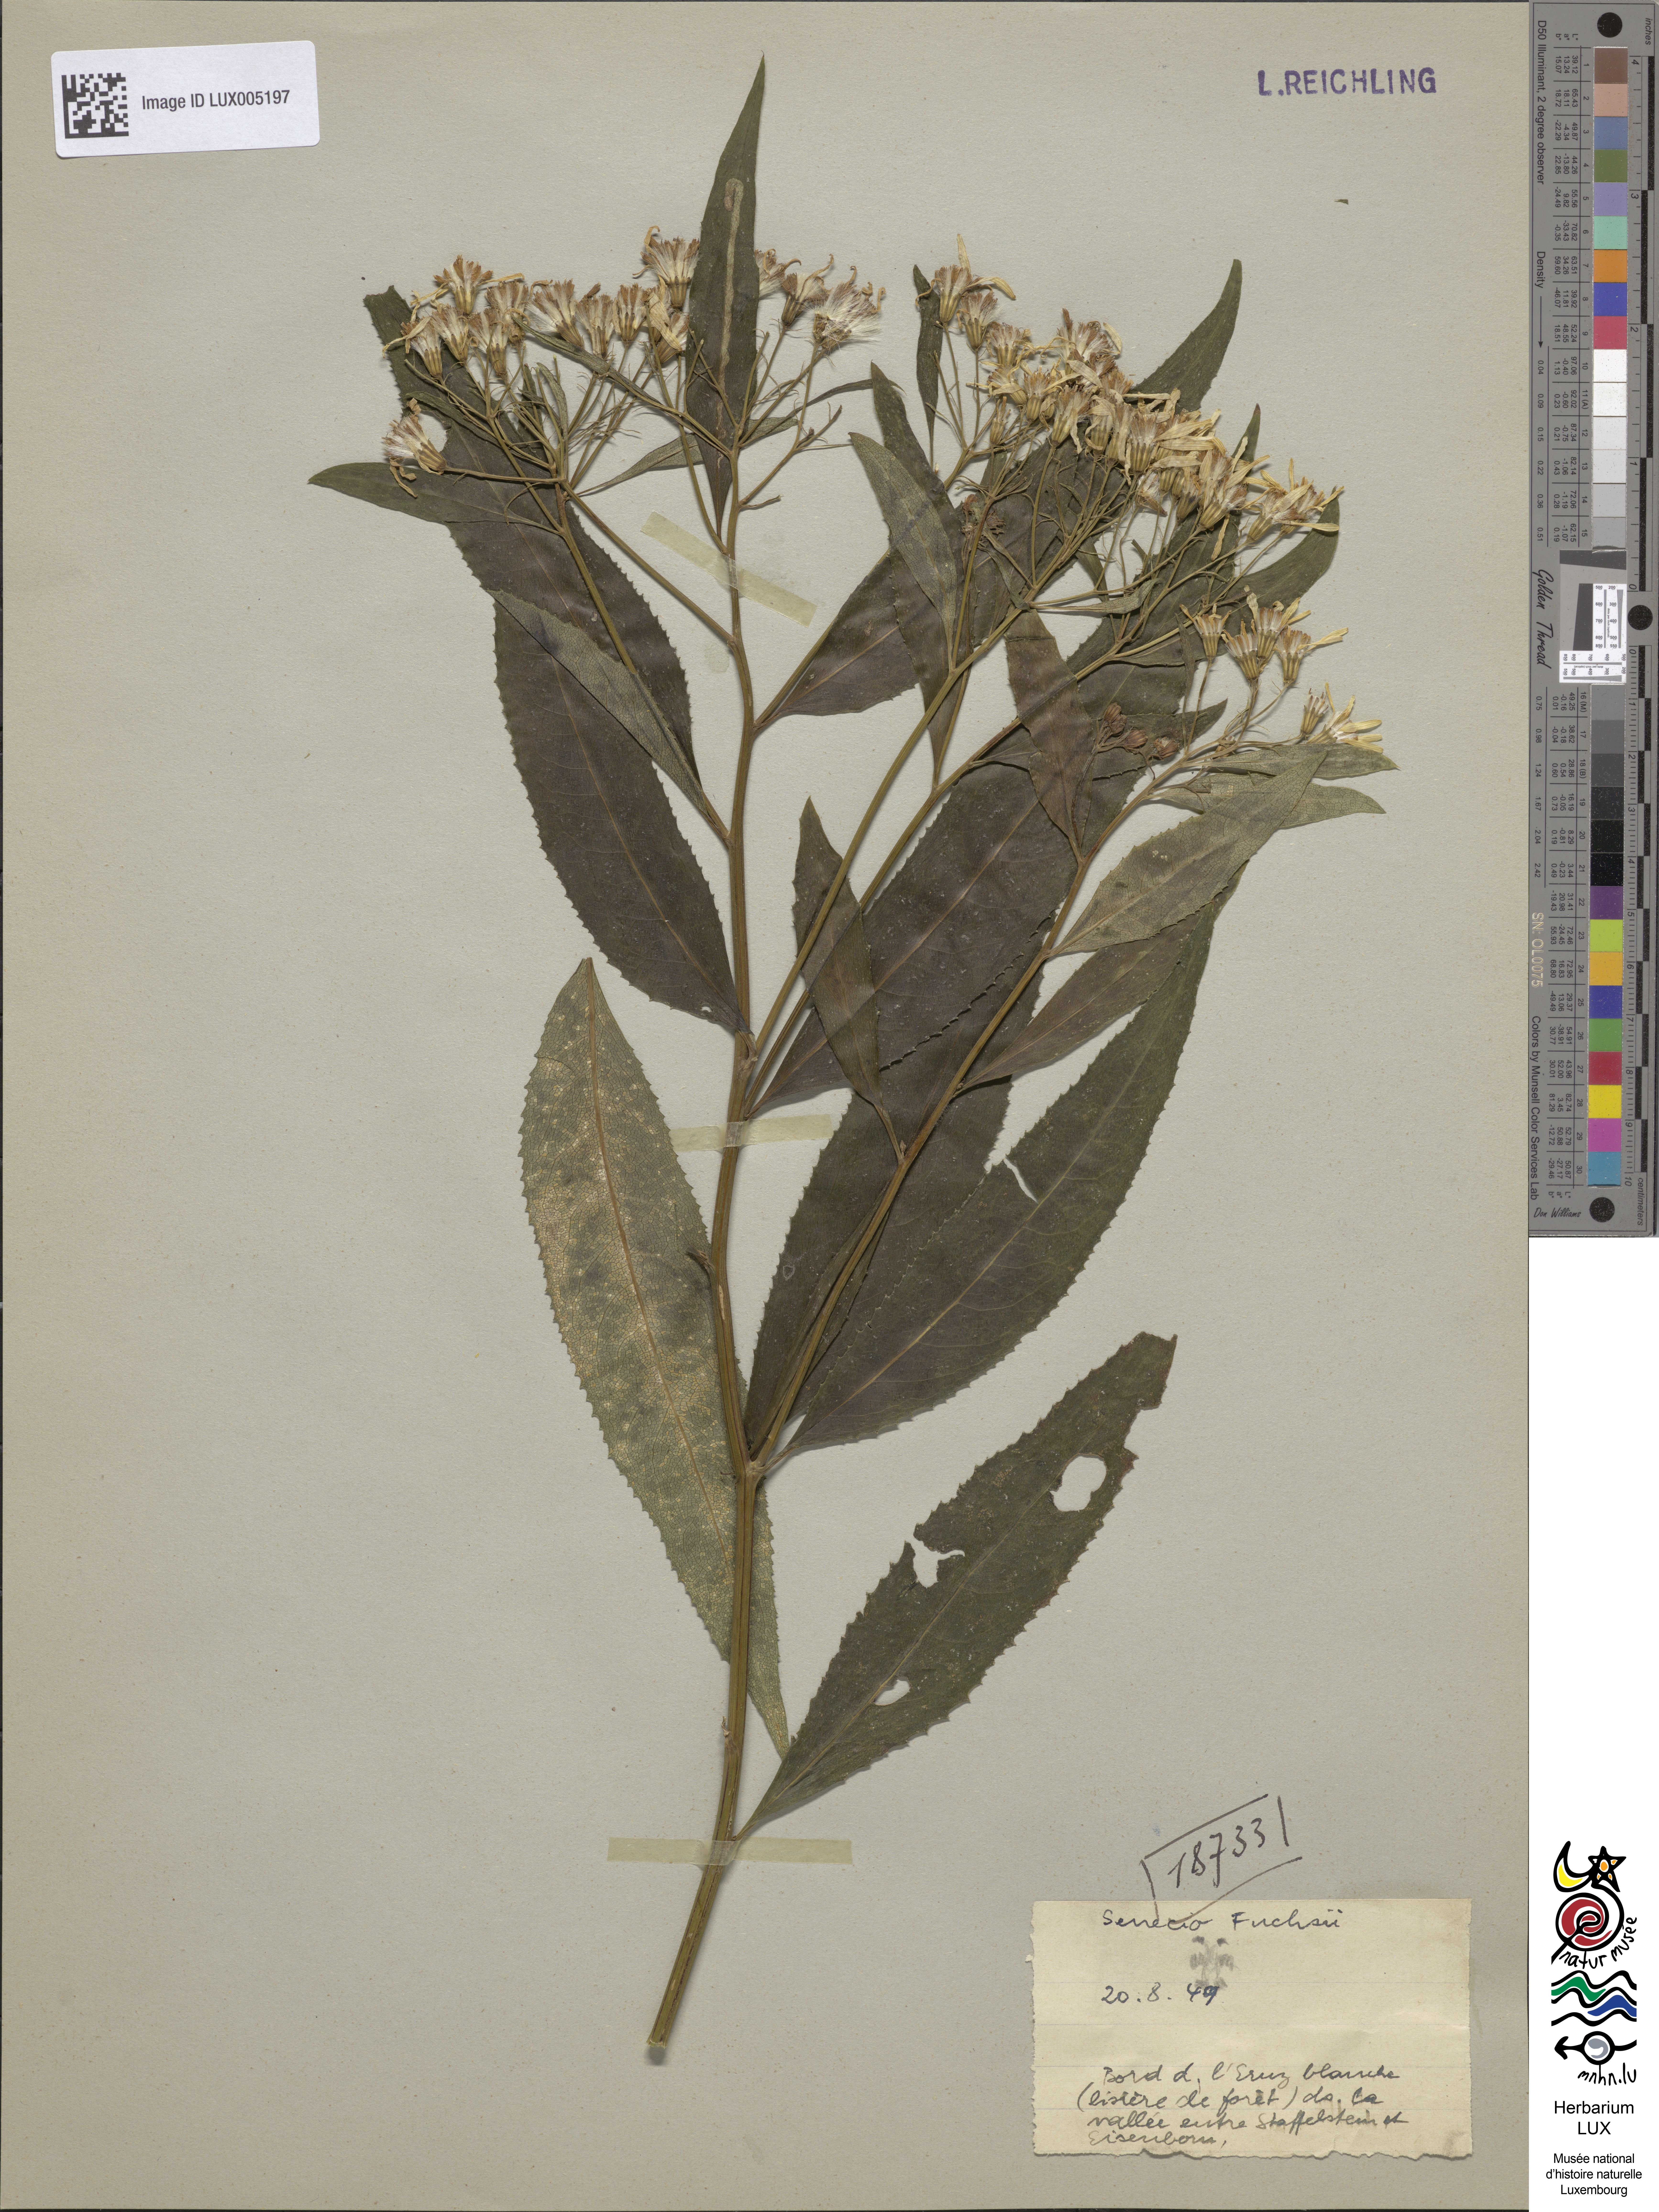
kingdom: Plantae
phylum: Tracheophyta
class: Magnoliopsida
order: Asterales
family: Asteraceae
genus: Senecio
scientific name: Senecio ovatus
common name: Wood ragwort
